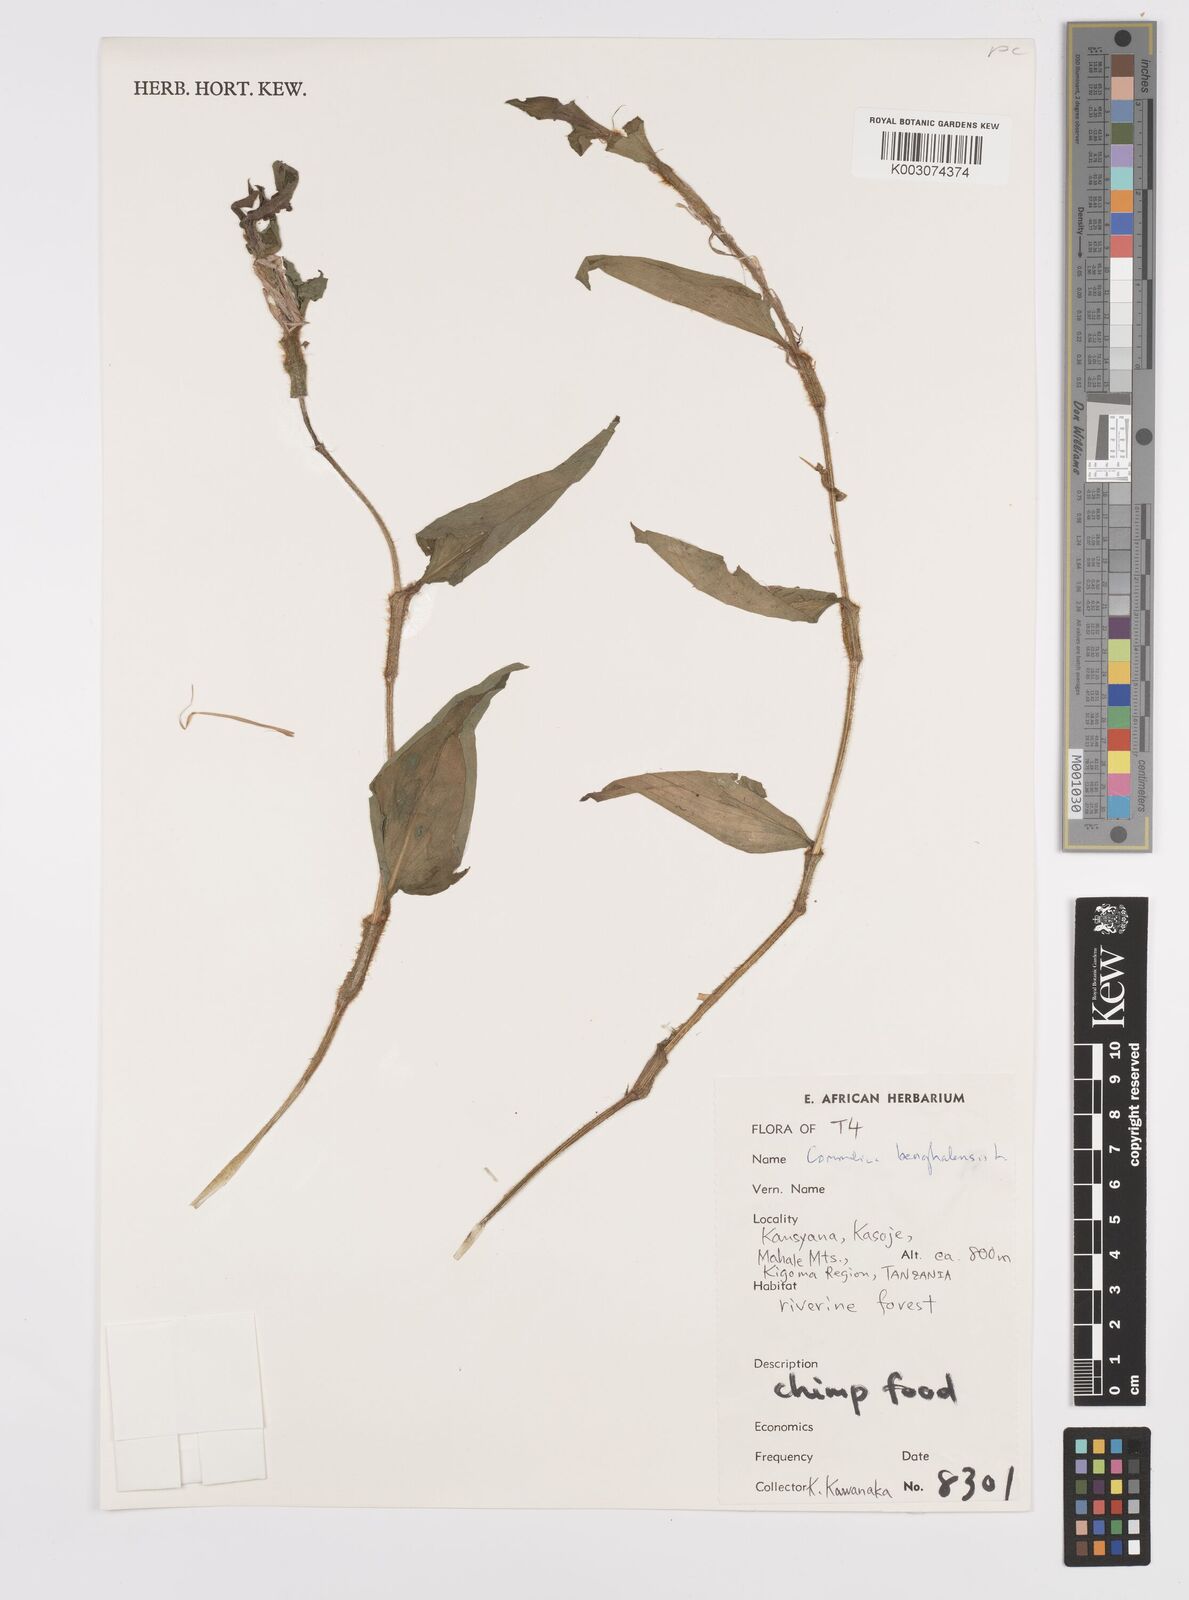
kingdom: Plantae
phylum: Tracheophyta
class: Liliopsida
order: Commelinales
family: Commelinaceae
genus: Commelina
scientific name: Commelina benghalensis
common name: Jio
